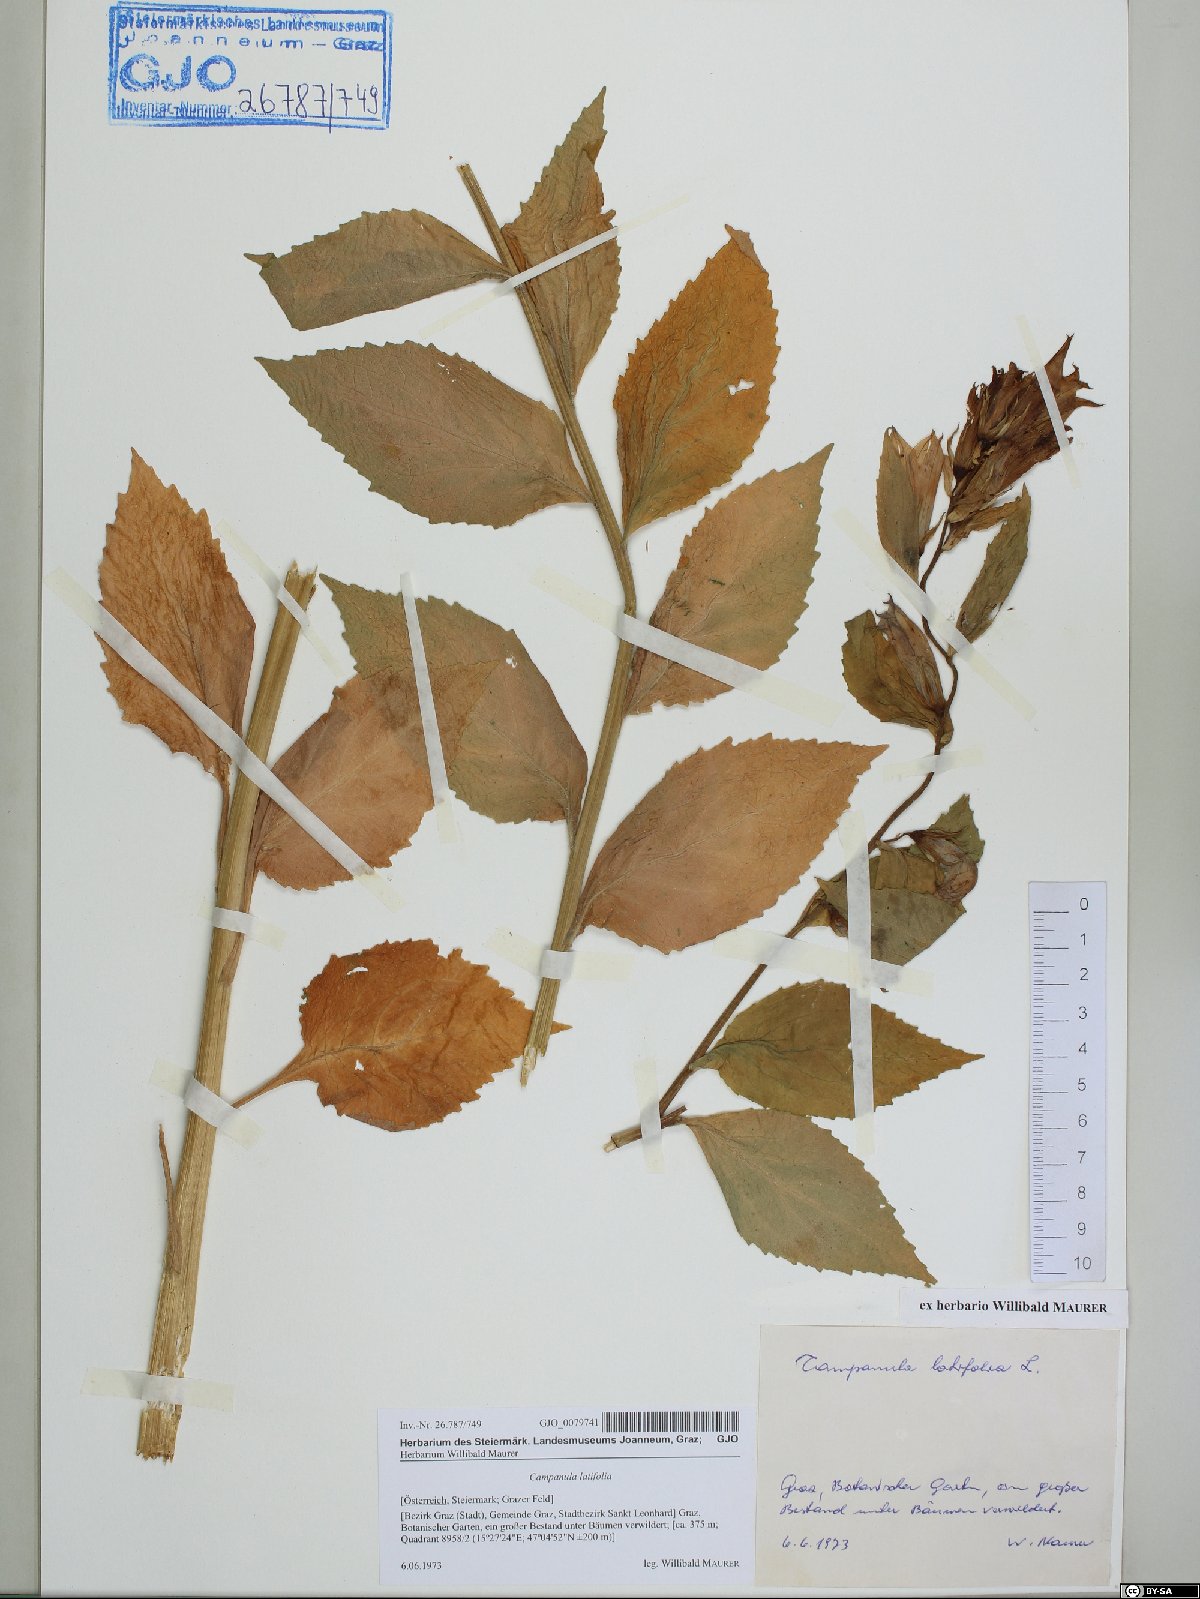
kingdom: Plantae
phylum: Tracheophyta
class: Magnoliopsida
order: Asterales
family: Campanulaceae
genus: Campanula
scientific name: Campanula latifolia
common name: Giant bellflower
